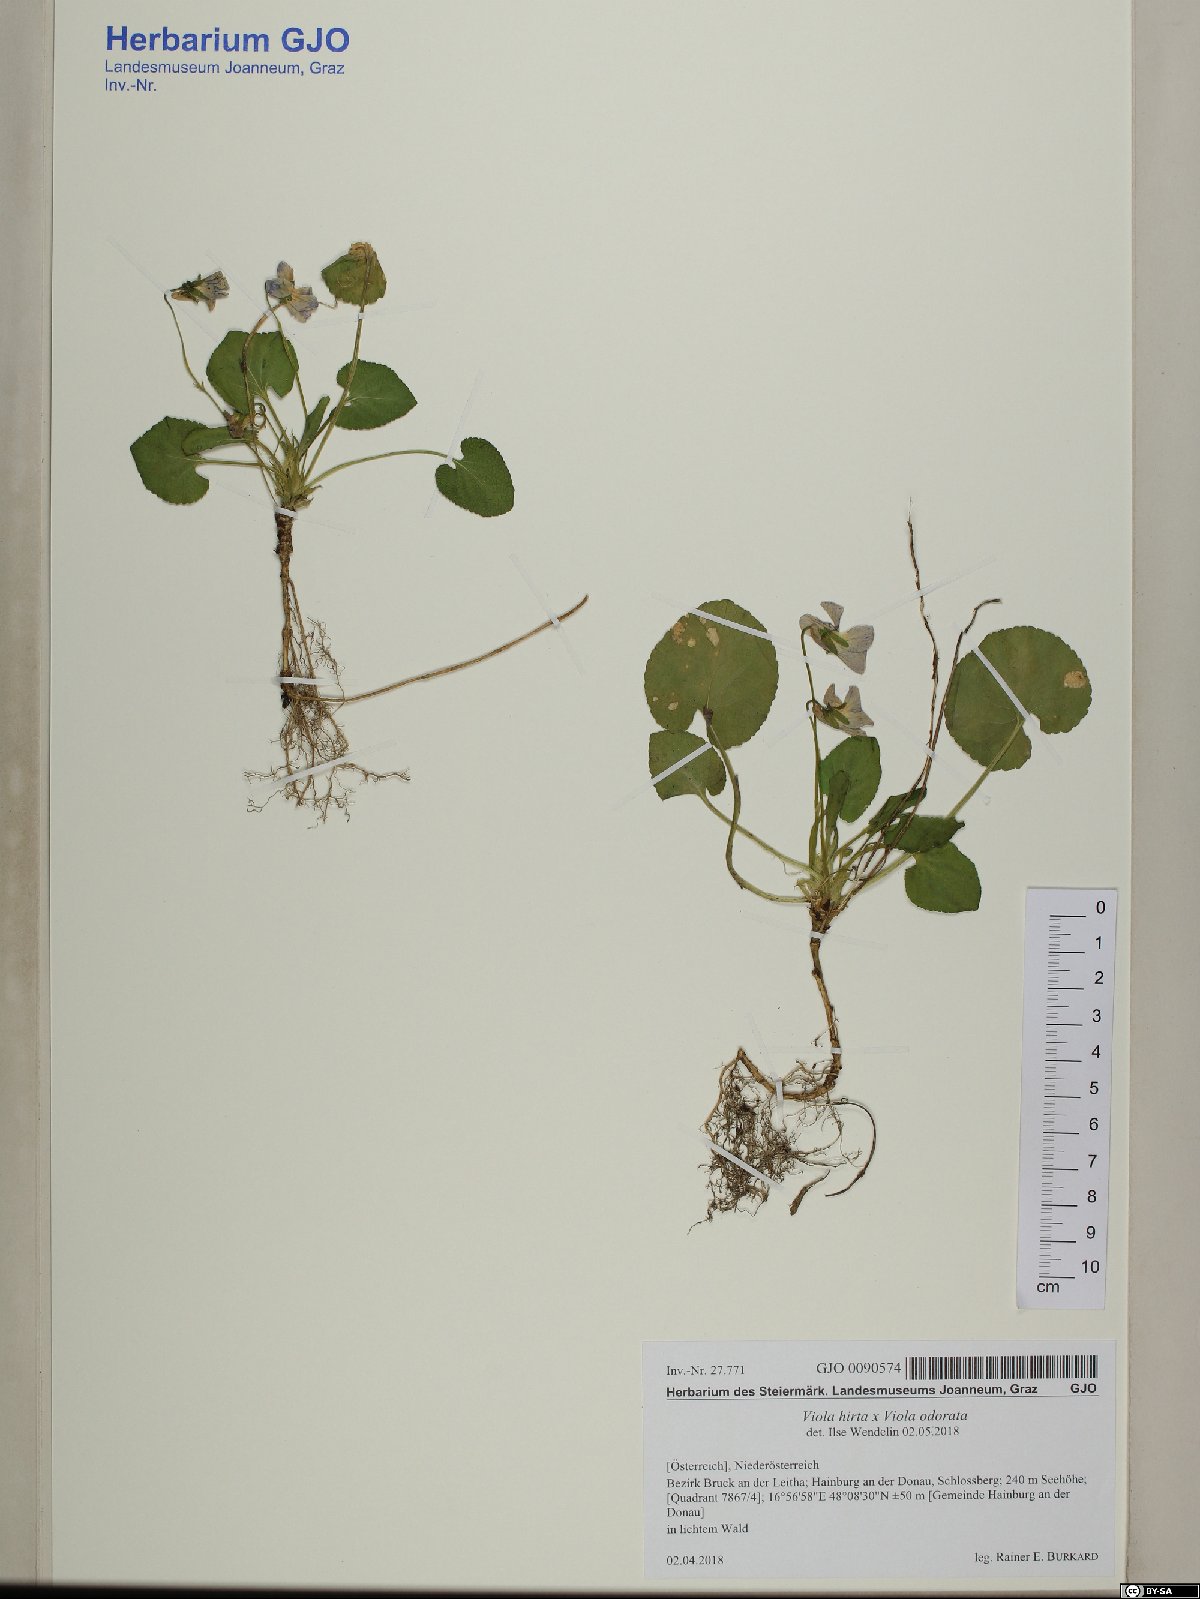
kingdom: Plantae
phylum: Tracheophyta
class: Magnoliopsida
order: Malpighiales
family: Violaceae
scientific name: Violaceae
